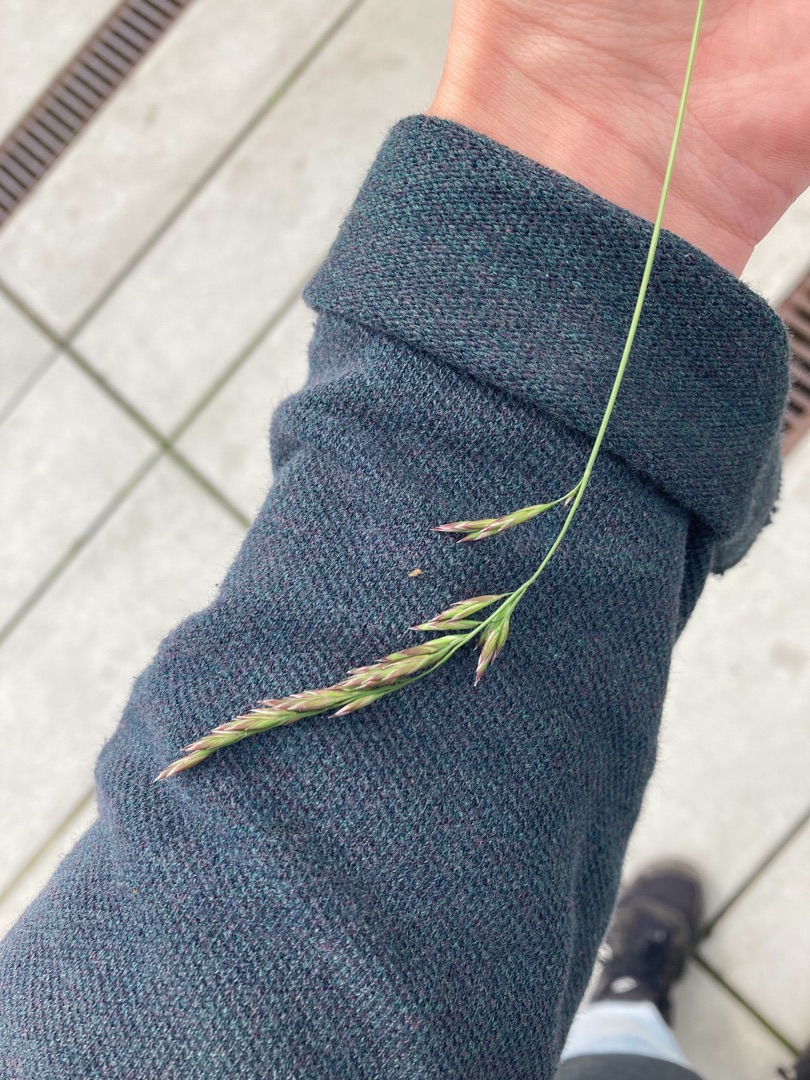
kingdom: Plantae
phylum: Tracheophyta
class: Liliopsida
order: Poales
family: Poaceae
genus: Lolium
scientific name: Lolium arundinaceum
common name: Strand-svingel
